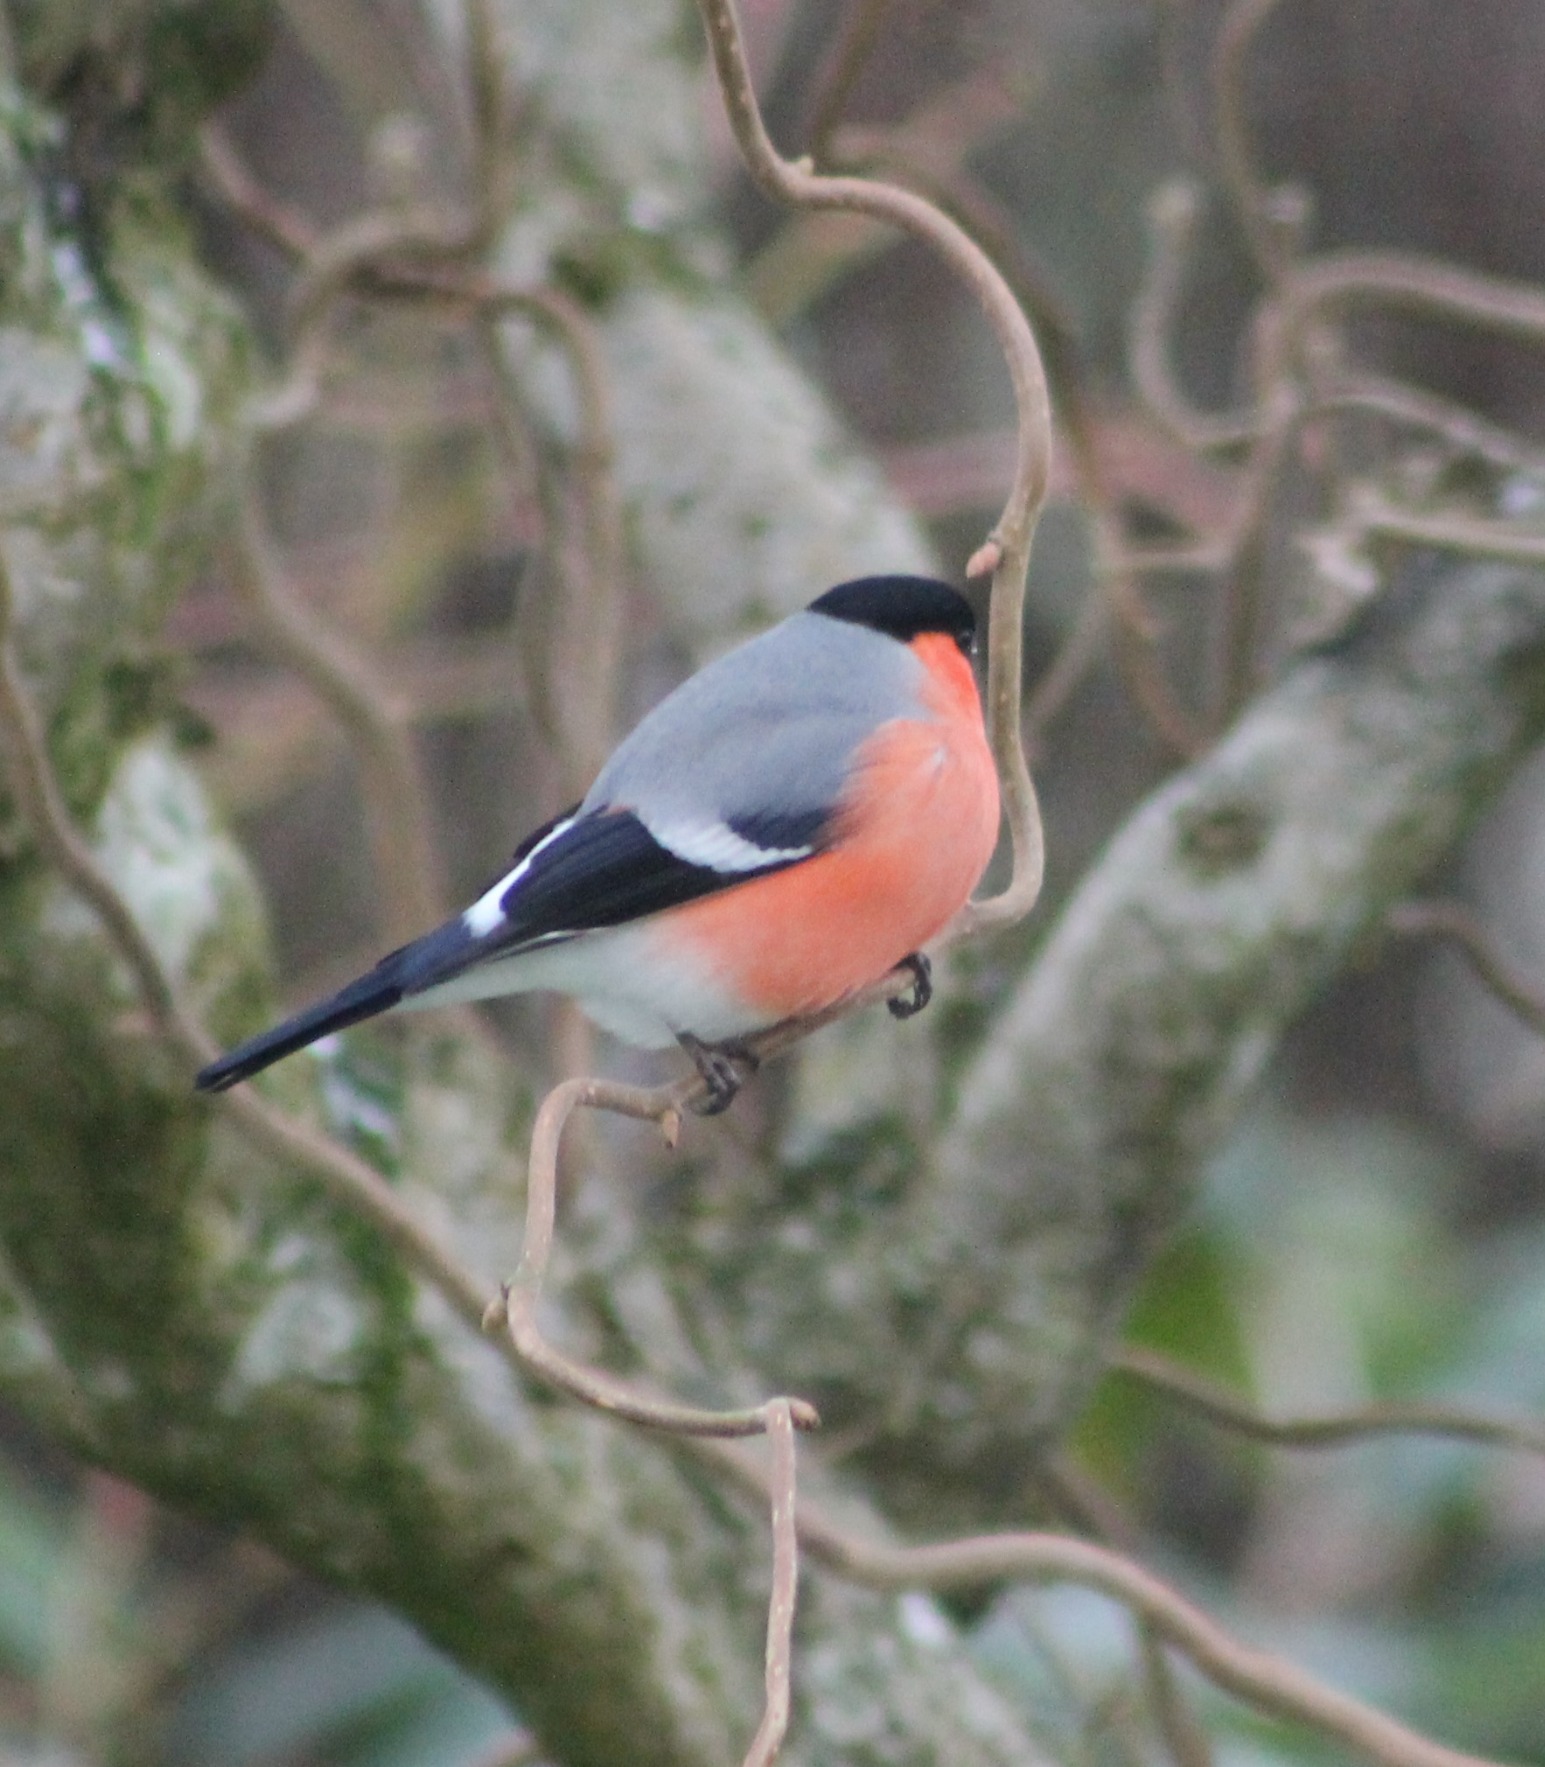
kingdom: Animalia
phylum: Chordata
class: Aves
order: Passeriformes
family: Fringillidae
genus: Pyrrhula
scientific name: Pyrrhula pyrrhula
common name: Dompap
